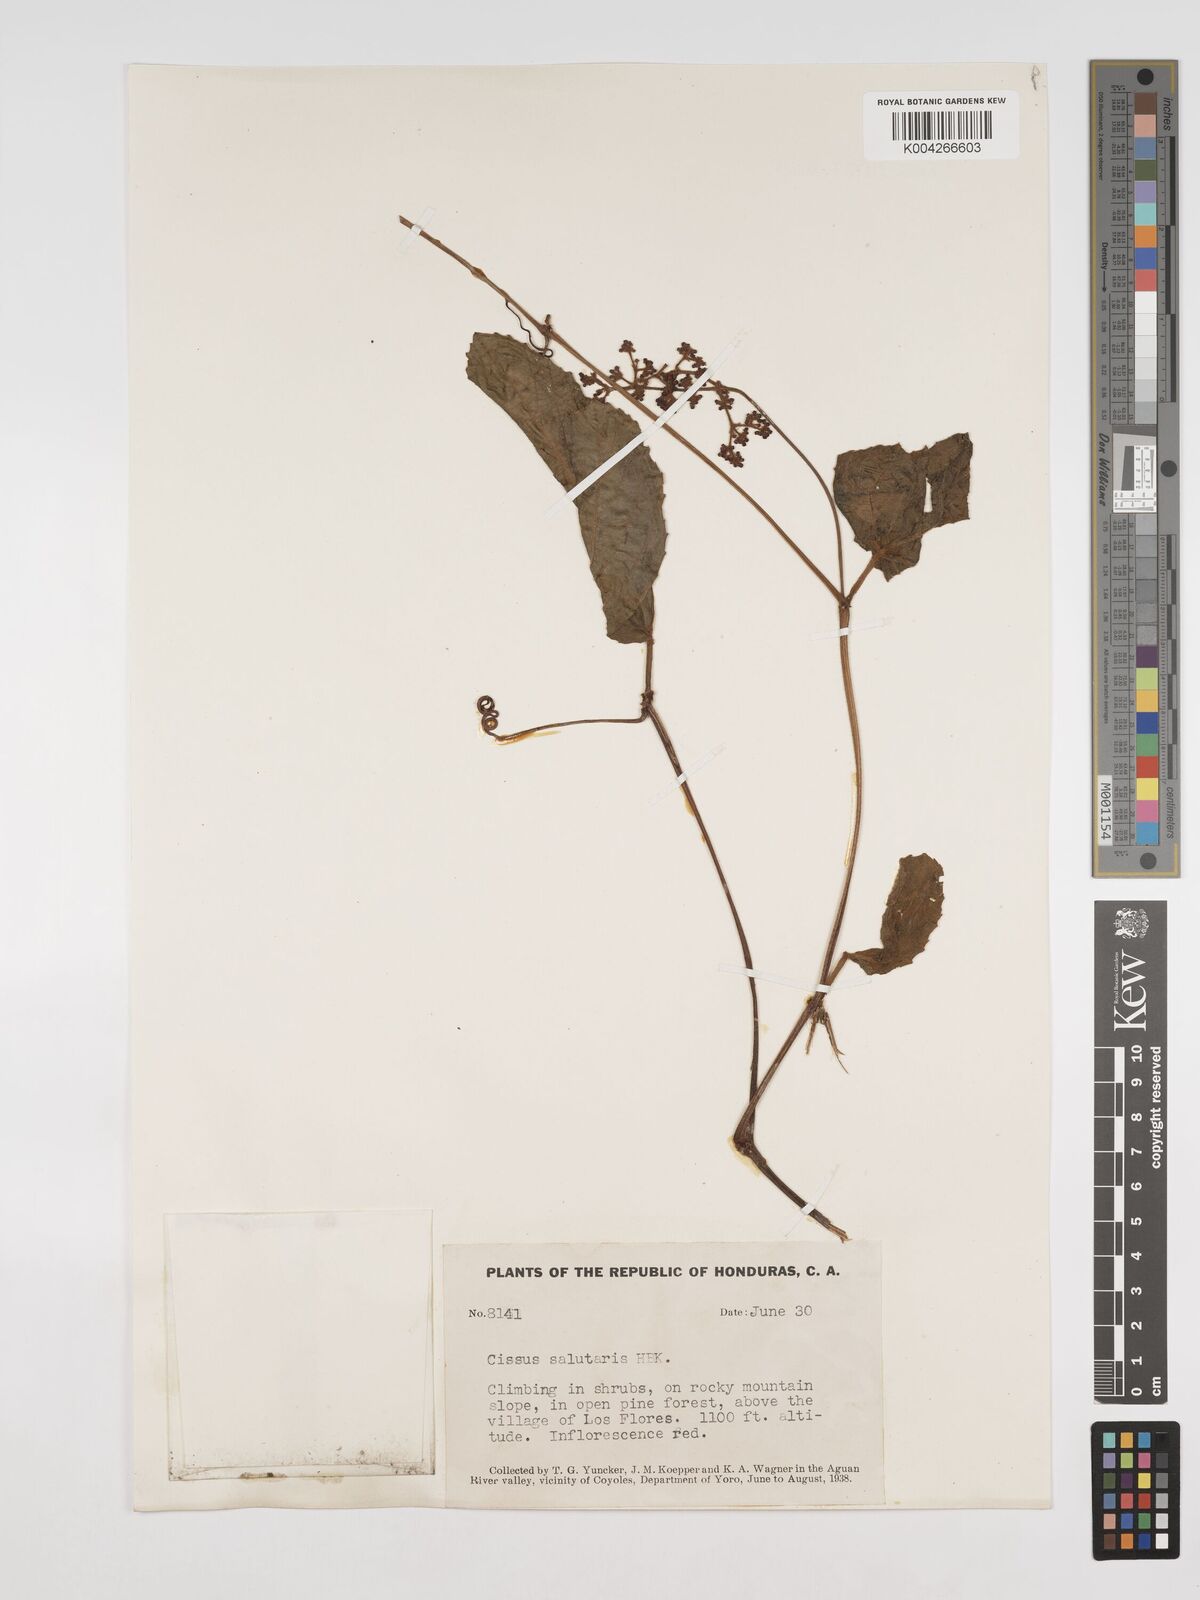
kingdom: Plantae
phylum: Tracheophyta
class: Magnoliopsida
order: Vitales
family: Vitaceae
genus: Cissus
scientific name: Cissus erosa
